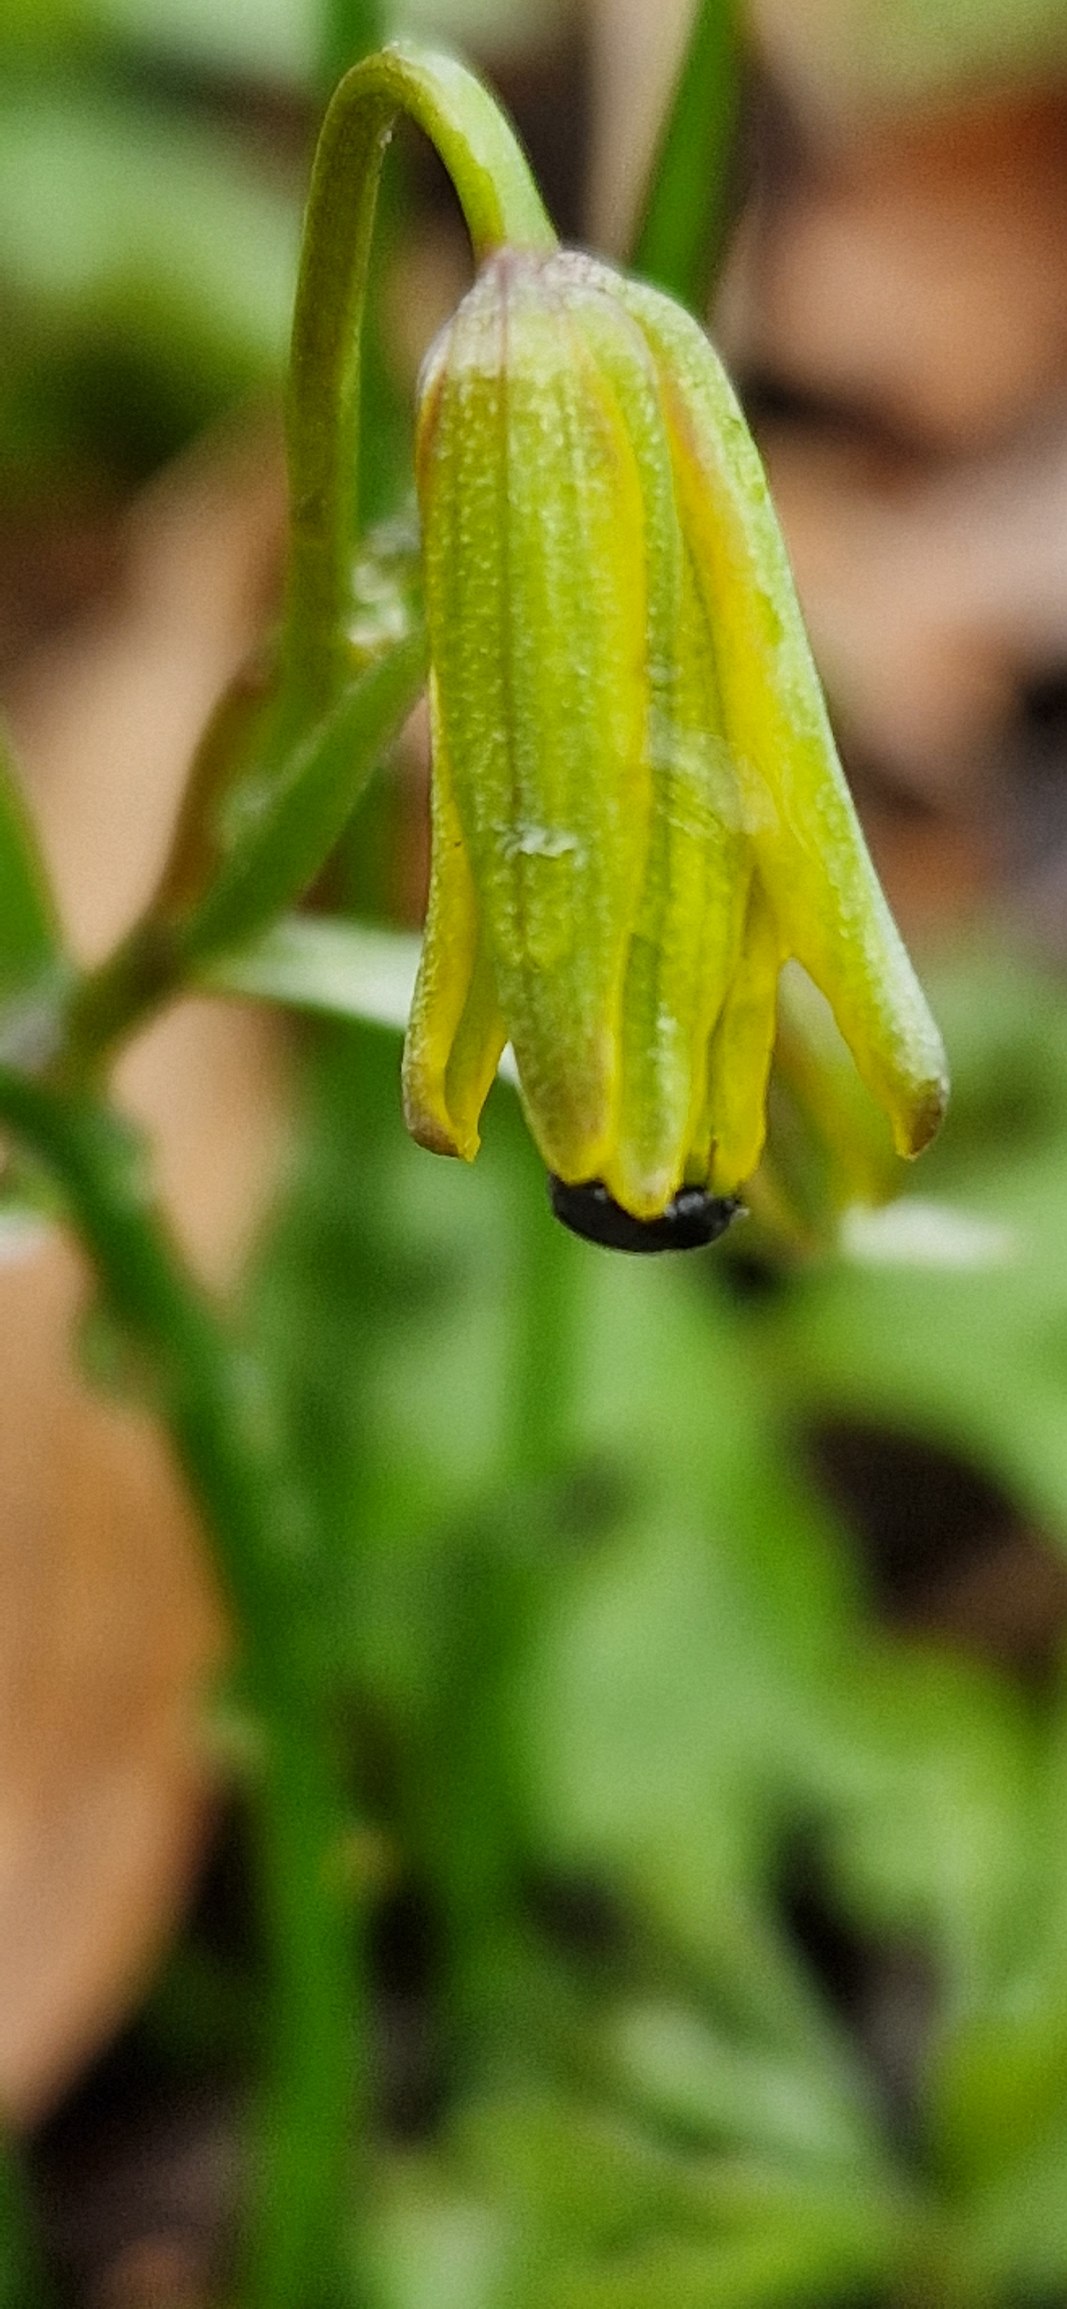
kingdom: Plantae
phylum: Tracheophyta
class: Liliopsida
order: Liliales
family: Liliaceae
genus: Gagea
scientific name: Gagea spathacea
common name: Hylster-guldstjerne
